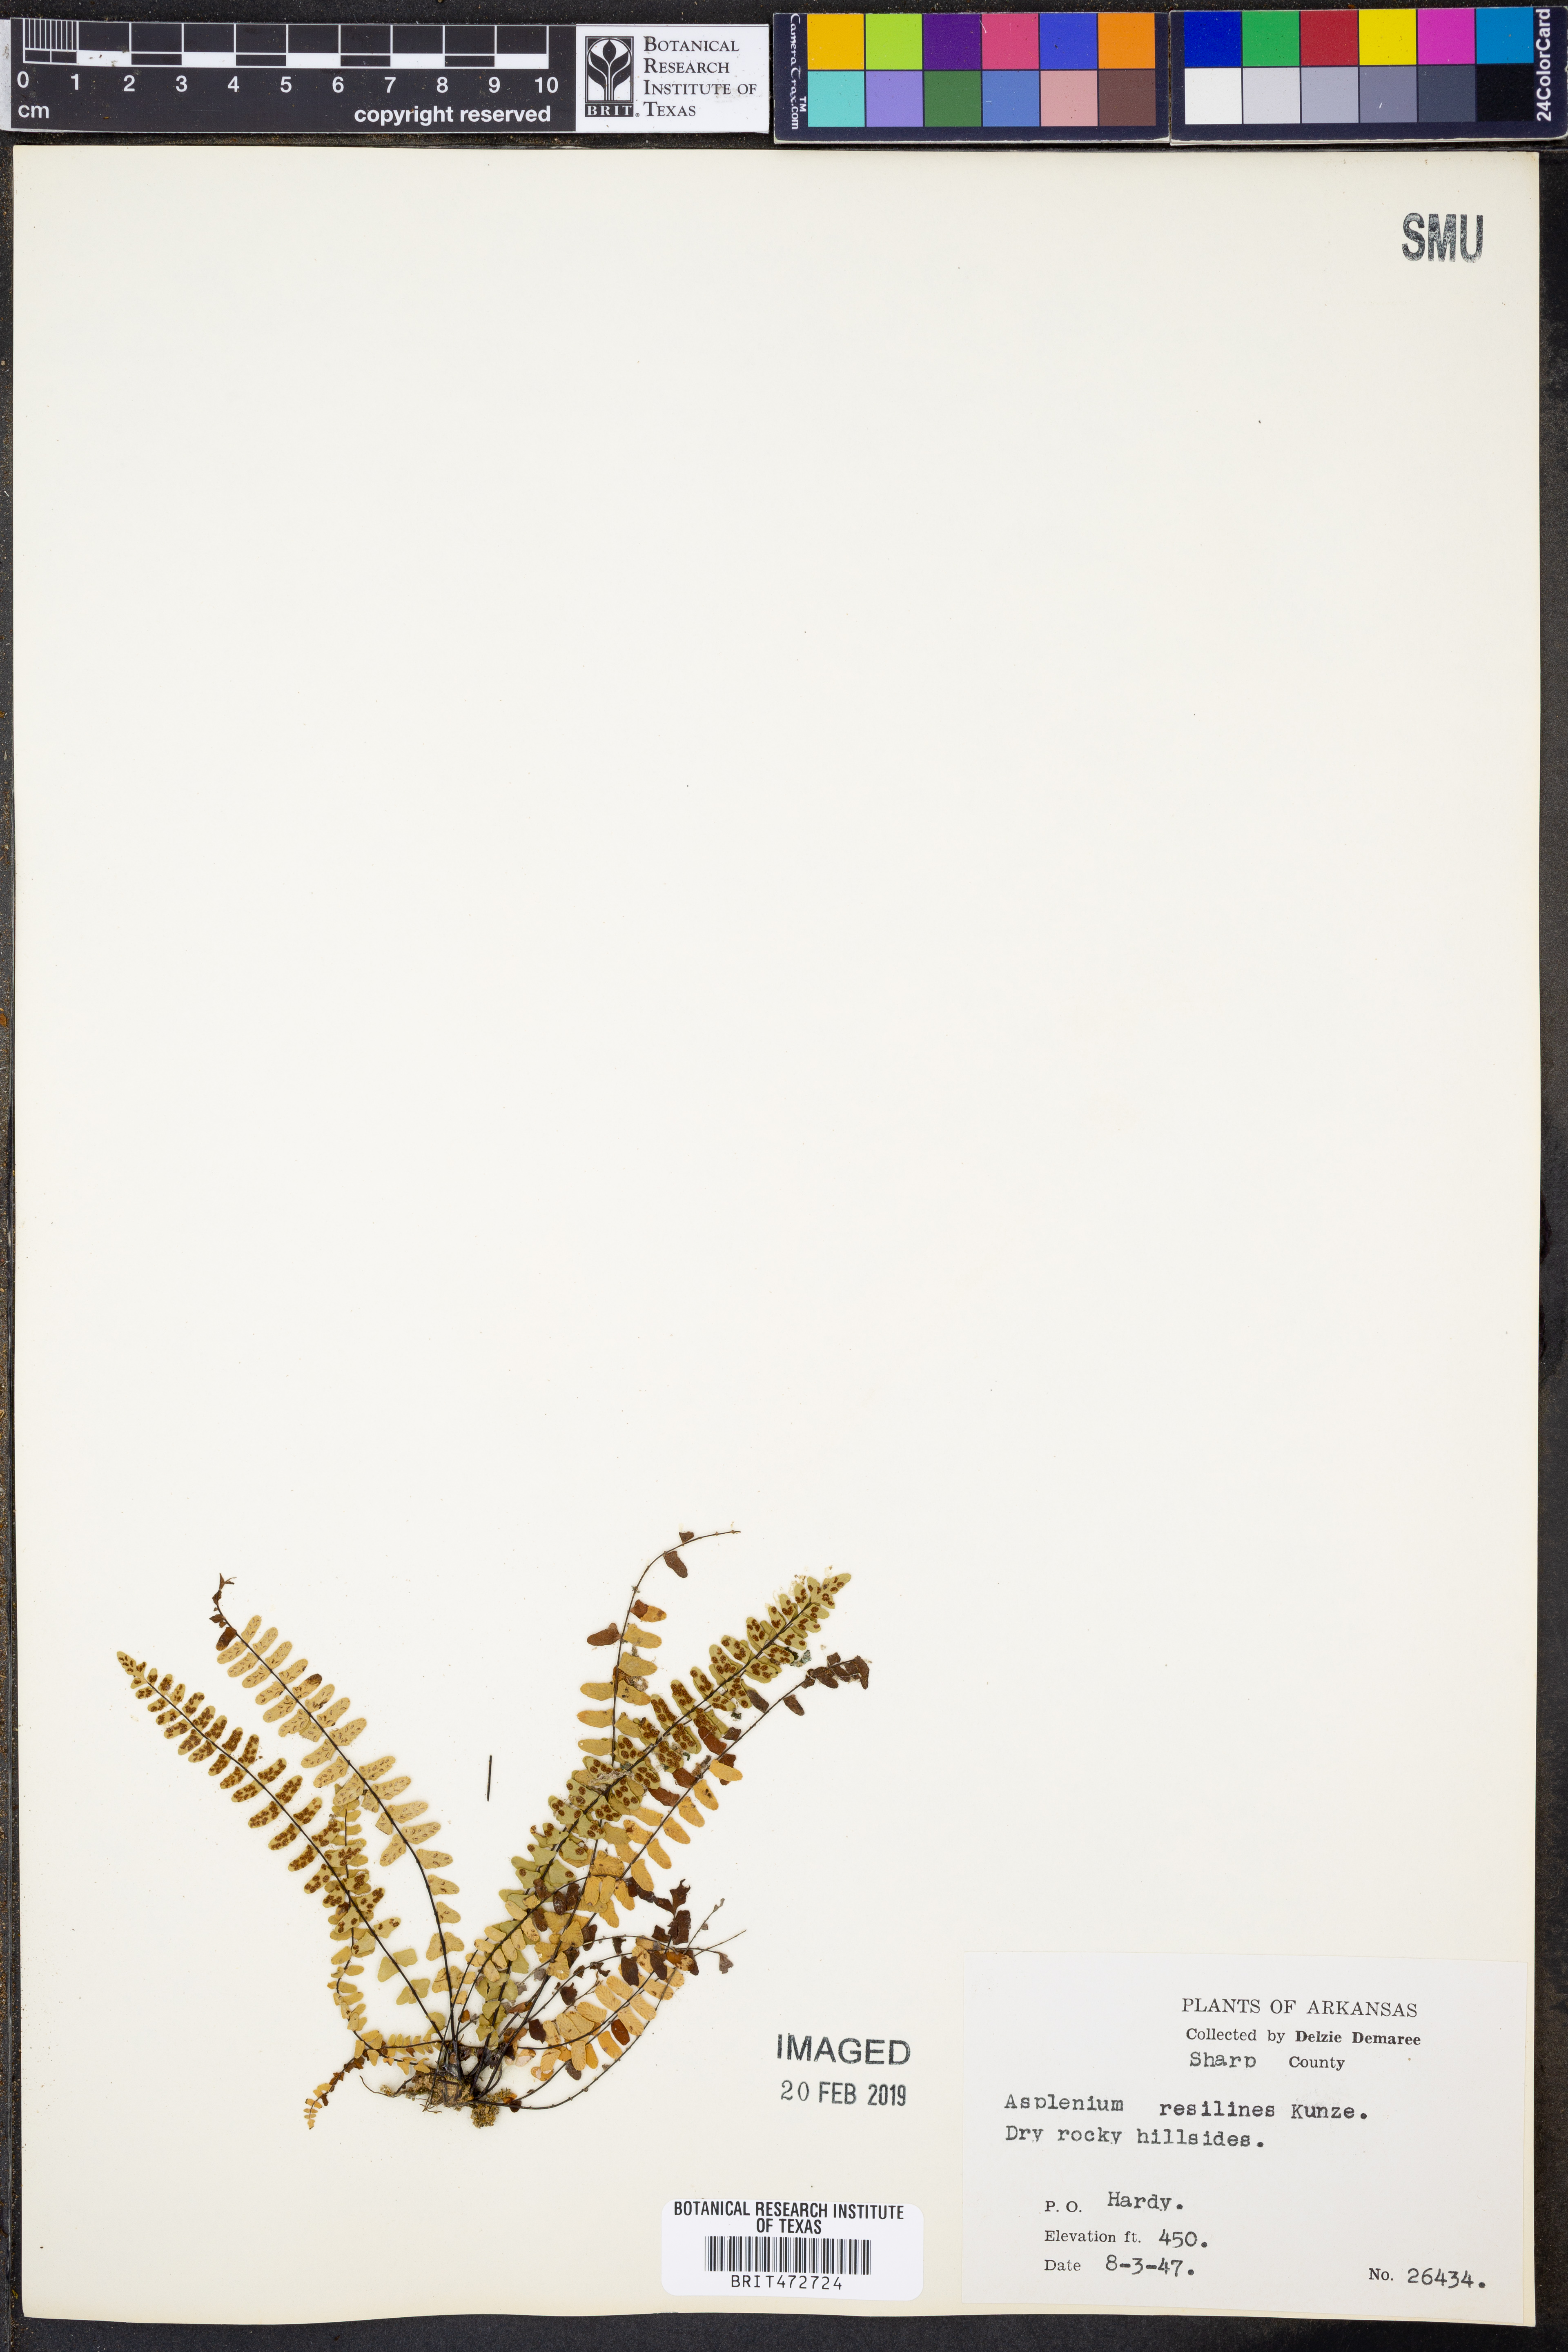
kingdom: Plantae
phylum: Tracheophyta
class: Polypodiopsida
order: Polypodiales
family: Aspleniaceae
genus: Asplenium
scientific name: Asplenium resiliens
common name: Blackstem spleenwort
